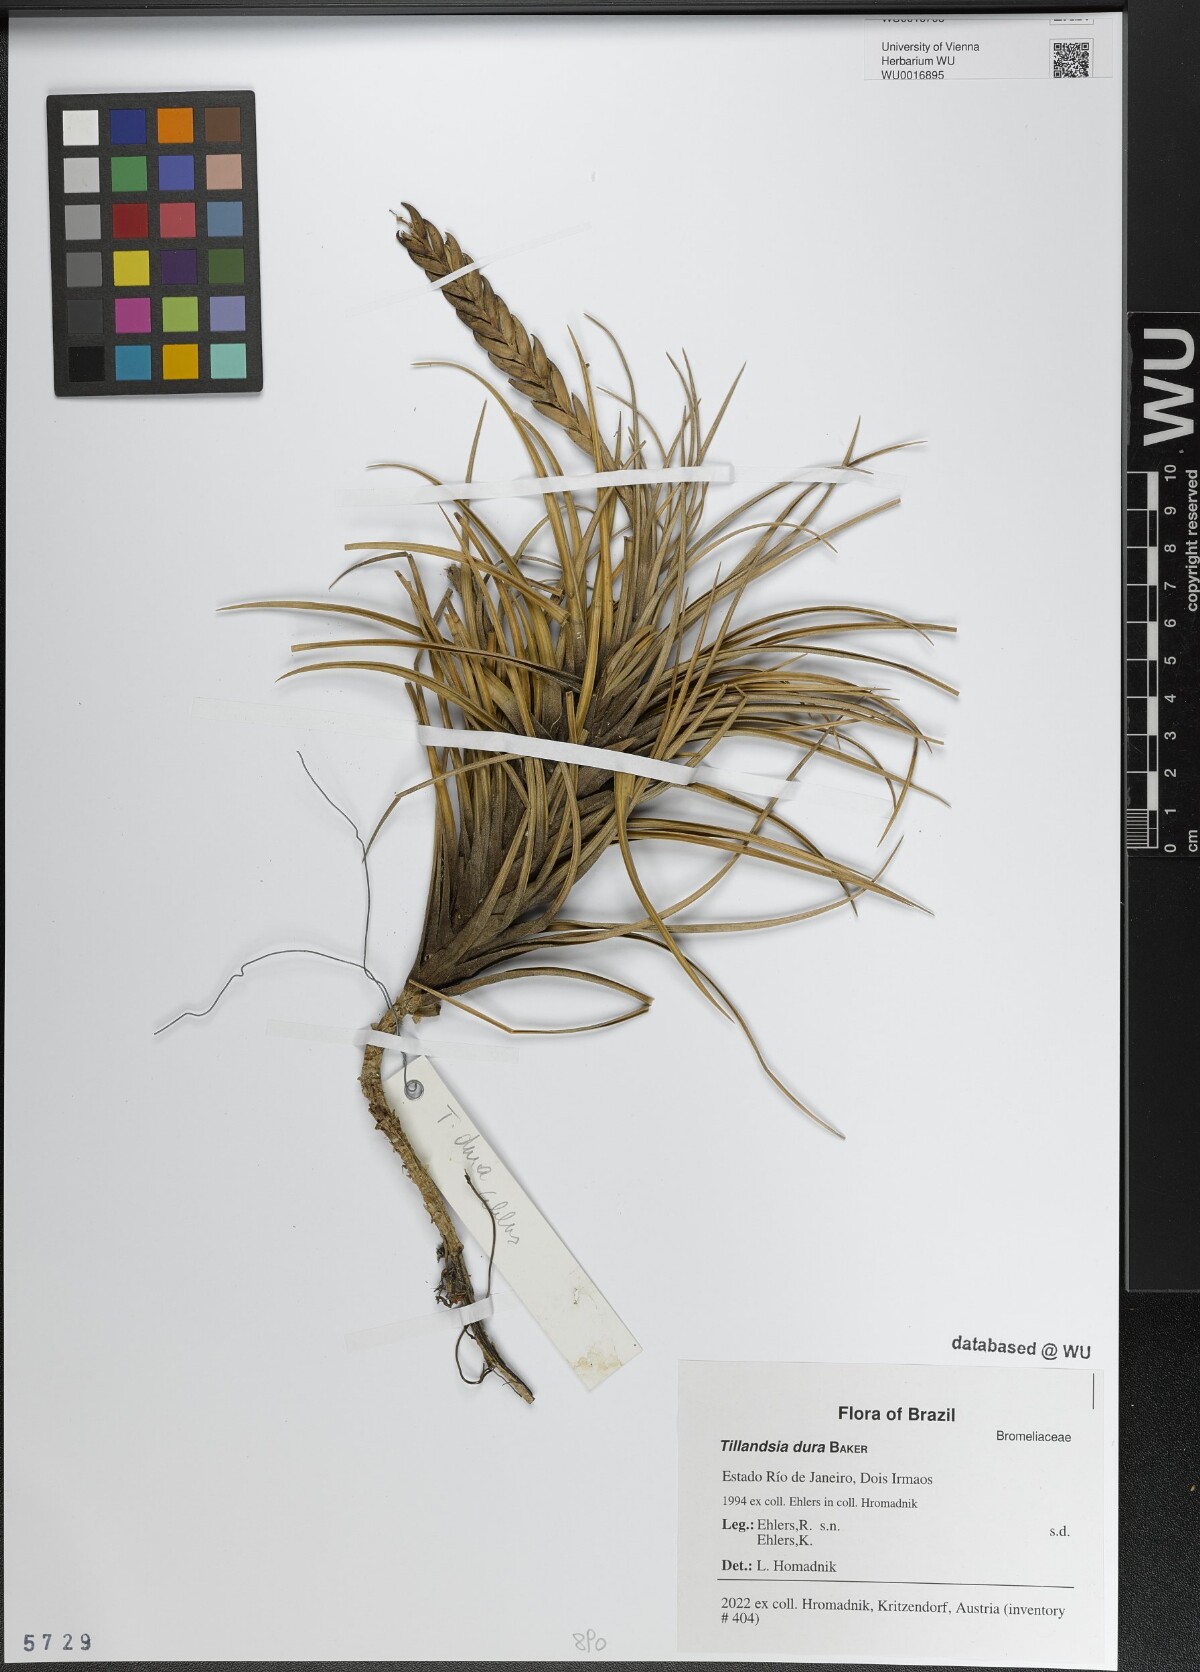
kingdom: Plantae
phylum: Tracheophyta
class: Liliopsida
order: Poales
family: Bromeliaceae
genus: Tillandsia
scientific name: Tillandsia dura
